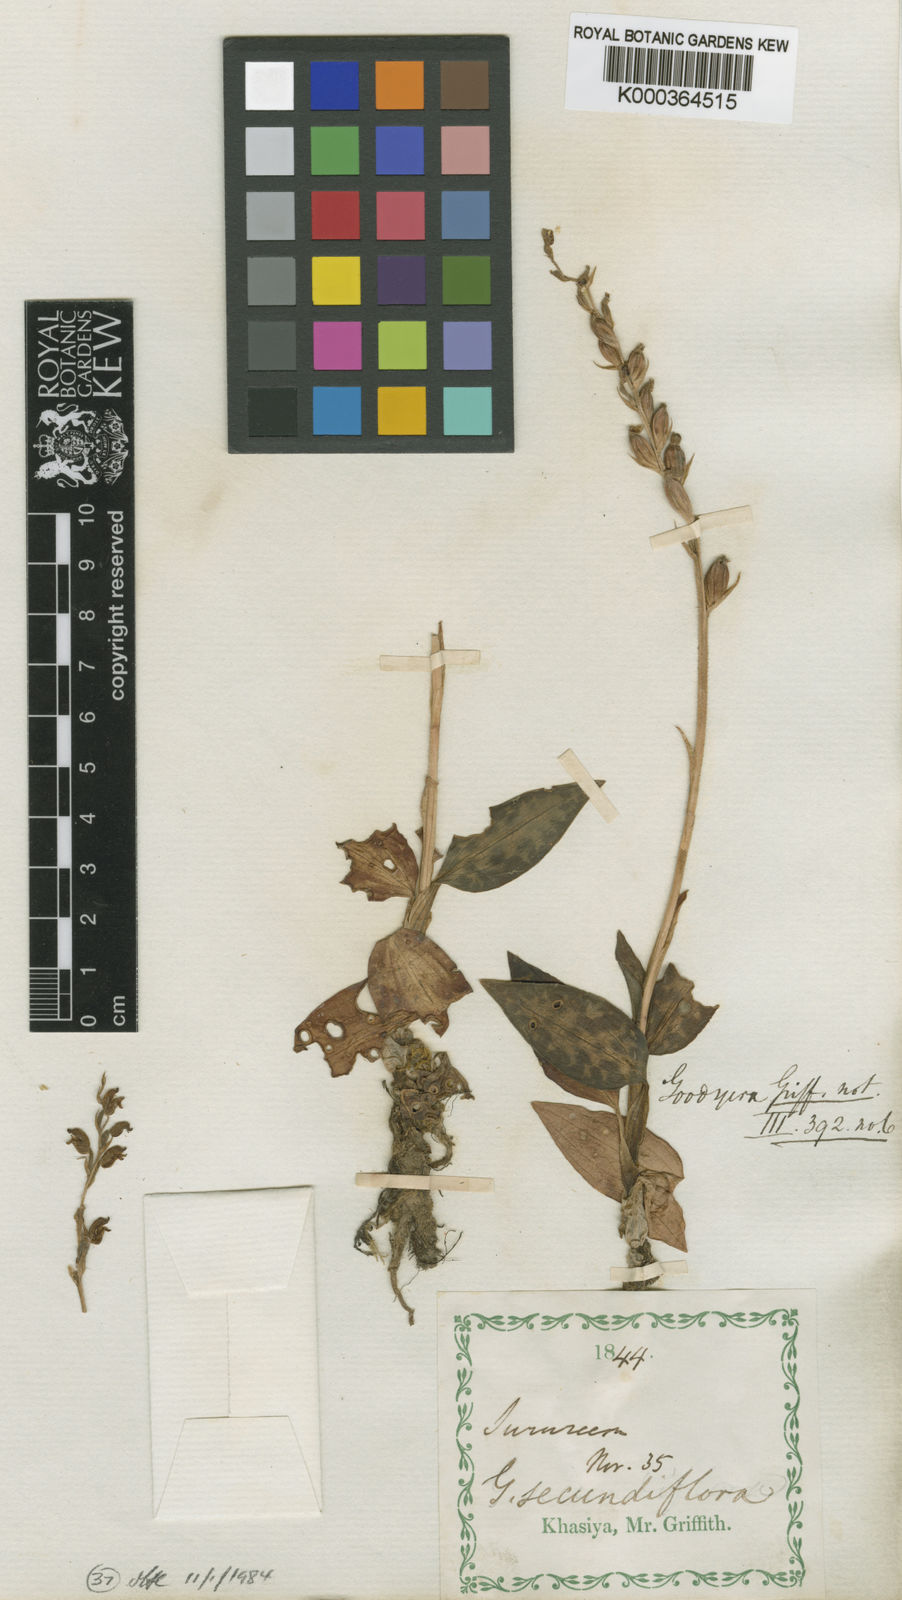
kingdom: Plantae
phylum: Tracheophyta
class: Liliopsida
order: Asparagales
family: Orchidaceae
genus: Goodyera
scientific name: Goodyera foliosa
